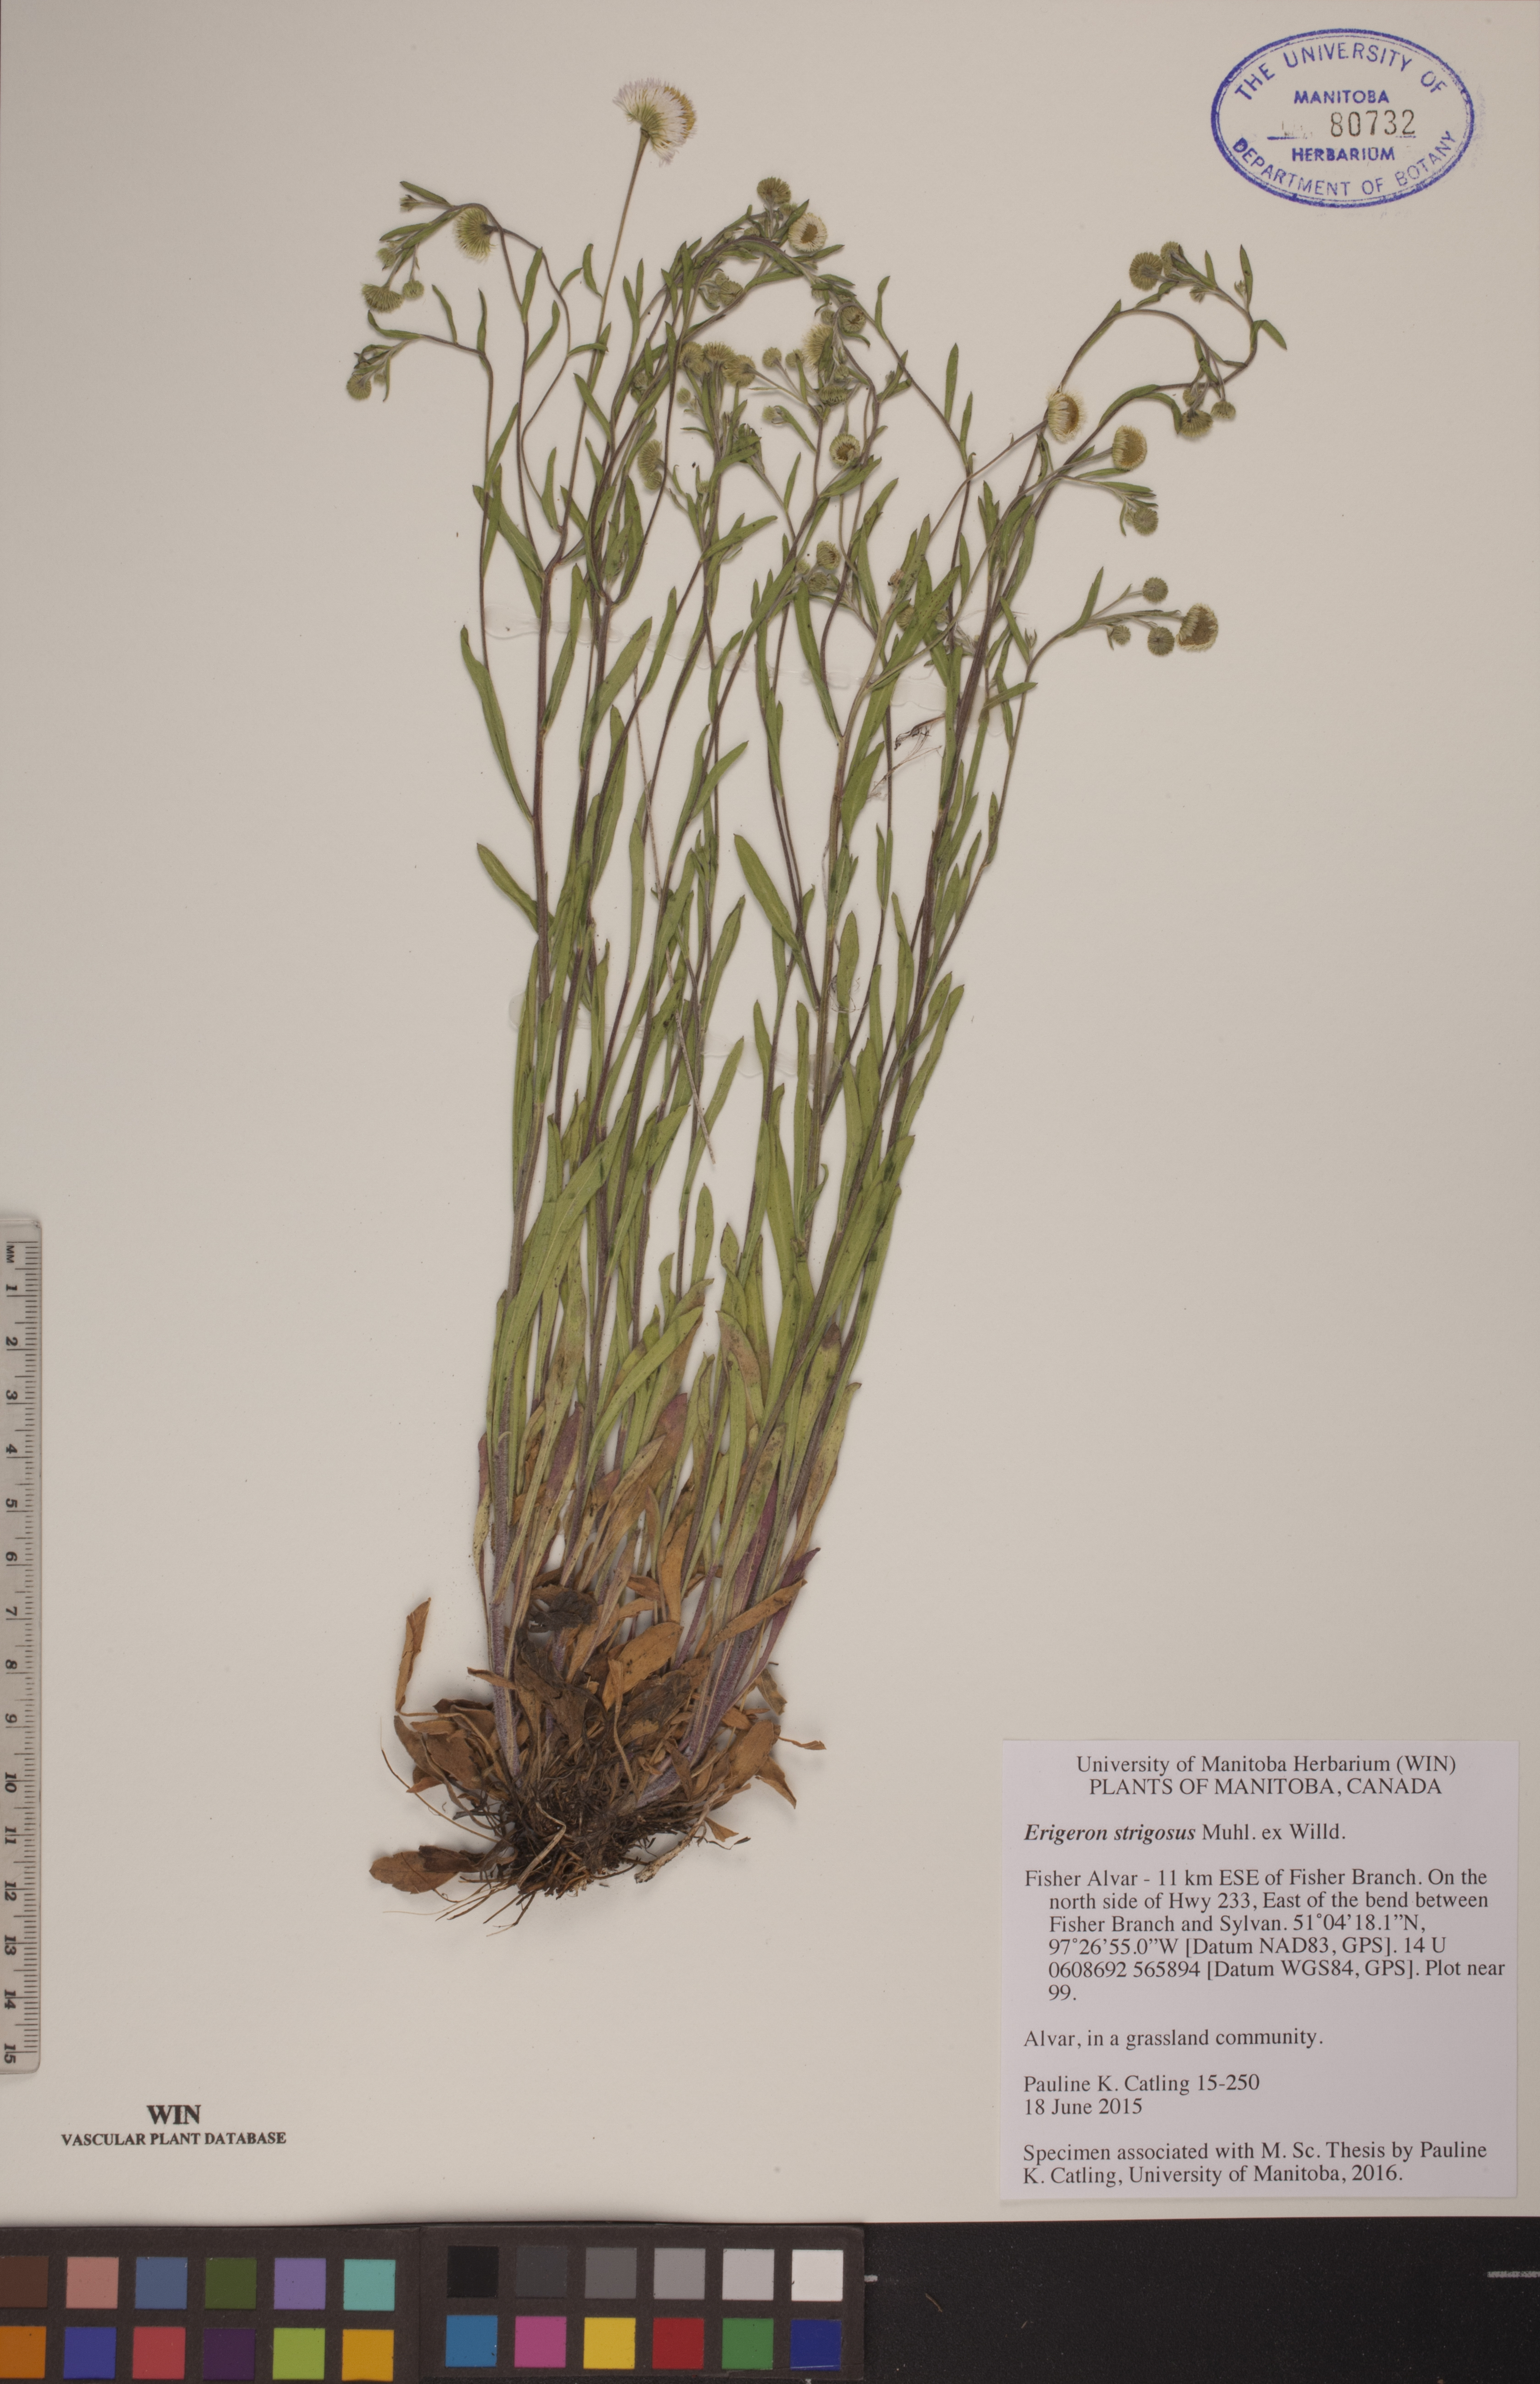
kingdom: Plantae
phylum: Tracheophyta
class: Magnoliopsida
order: Asterales
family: Asteraceae
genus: Erigeron
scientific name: Erigeron strigosus
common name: Common eastern fleabane
